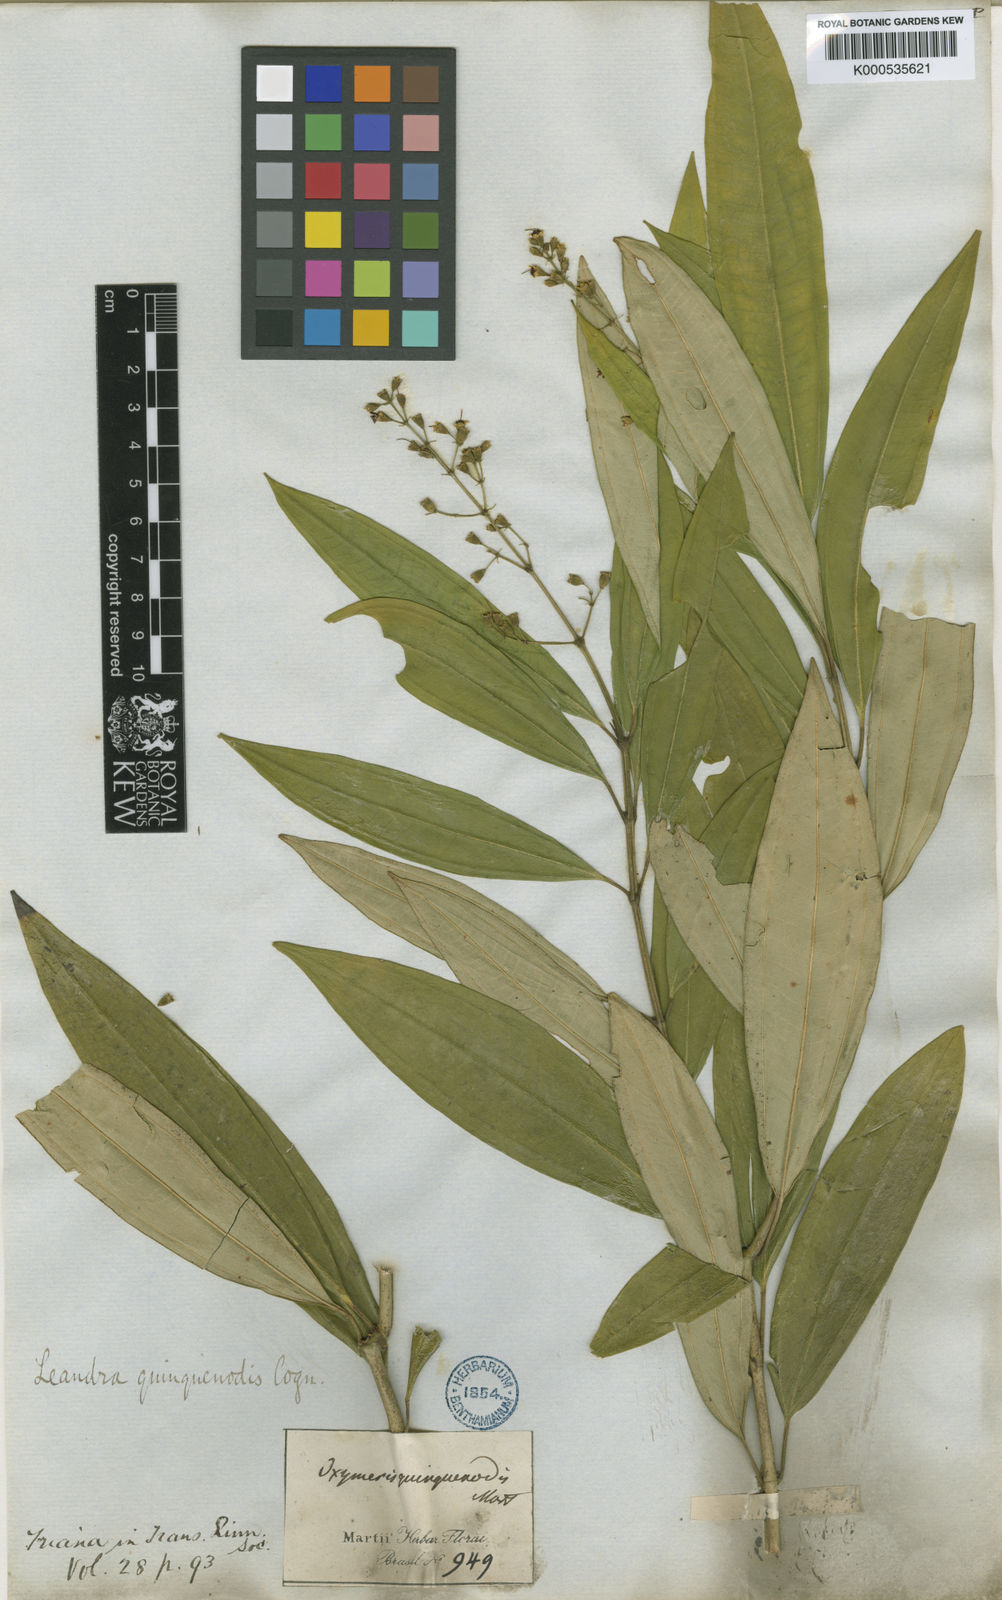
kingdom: Plantae
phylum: Tracheophyta
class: Magnoliopsida
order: Myrtales
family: Melastomataceae
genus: Miconia
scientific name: Miconia quinquenodis
